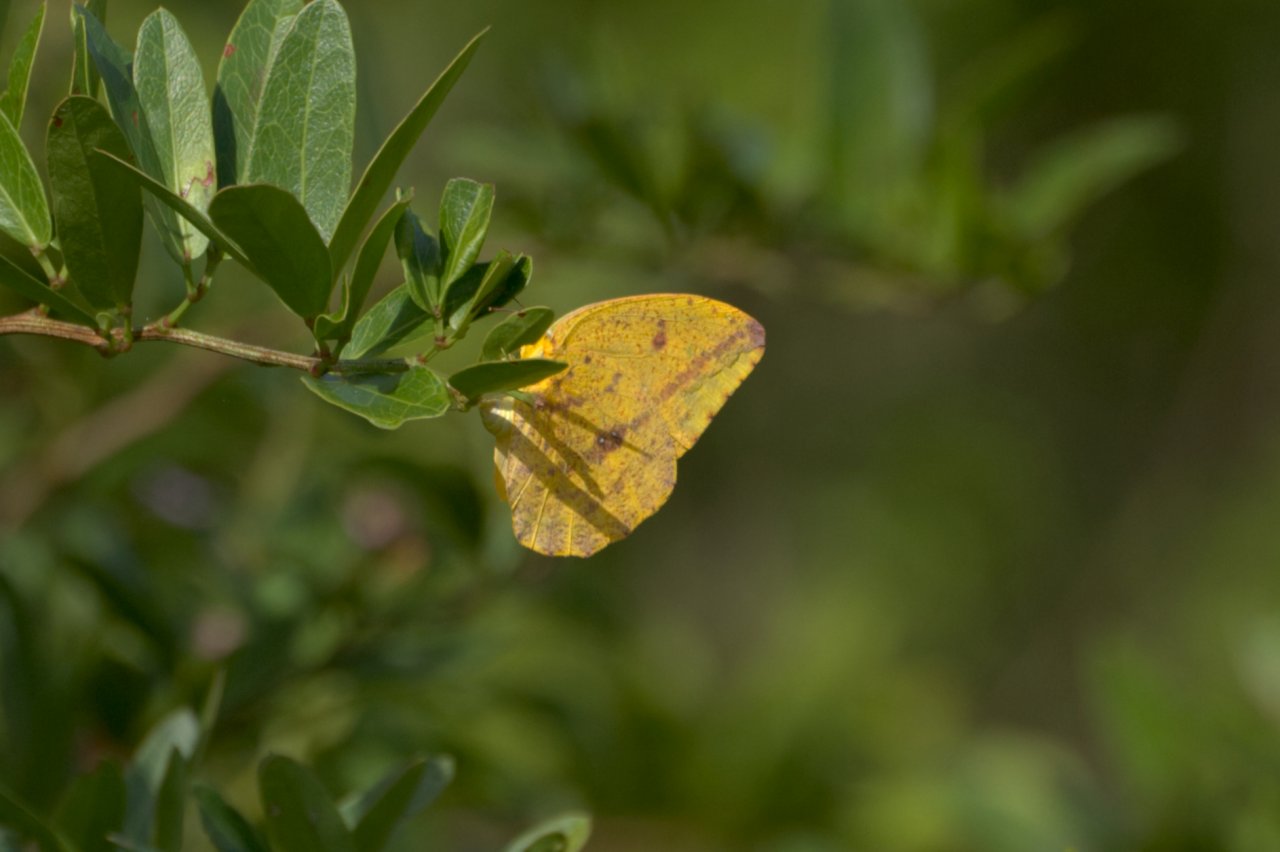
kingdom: Animalia
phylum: Arthropoda
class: Insecta
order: Lepidoptera
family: Pieridae
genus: Phoebis
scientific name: Phoebis agarithe
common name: Large Orange Sulphur
